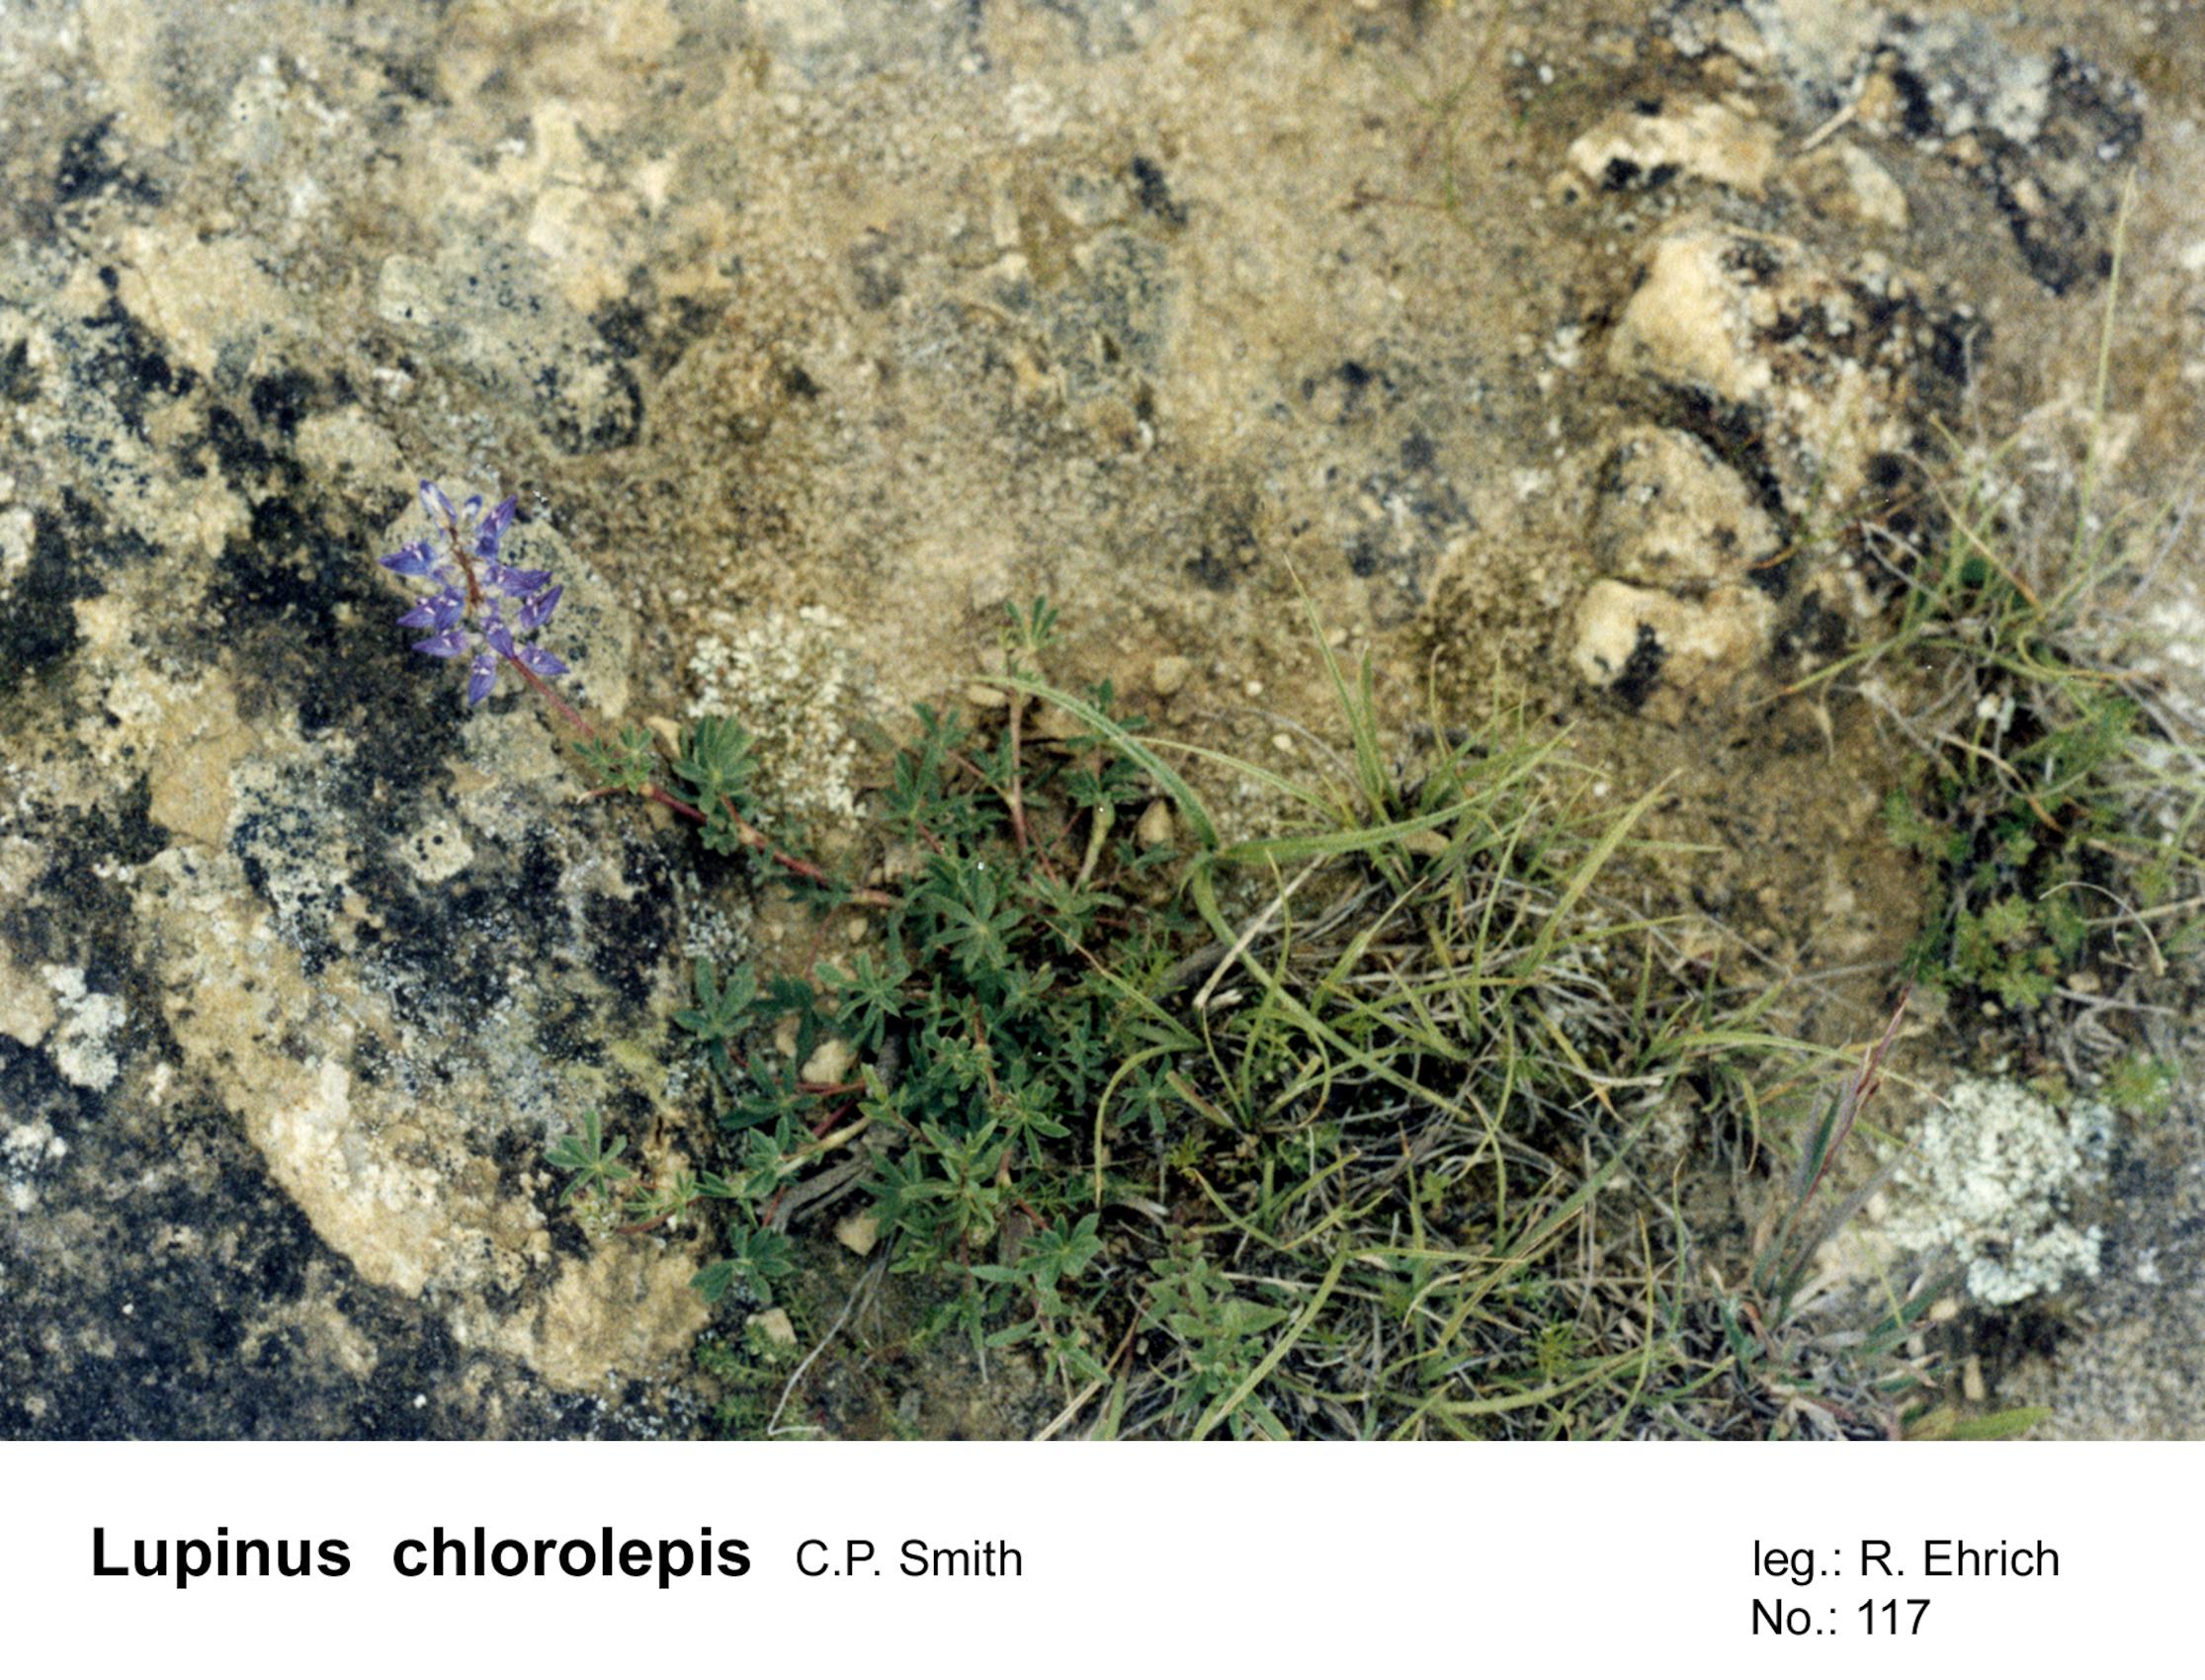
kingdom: Plantae
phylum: Tracheophyta
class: Magnoliopsida
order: Fabales
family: Fabaceae
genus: Lupinus
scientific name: Lupinus chlorolepis
